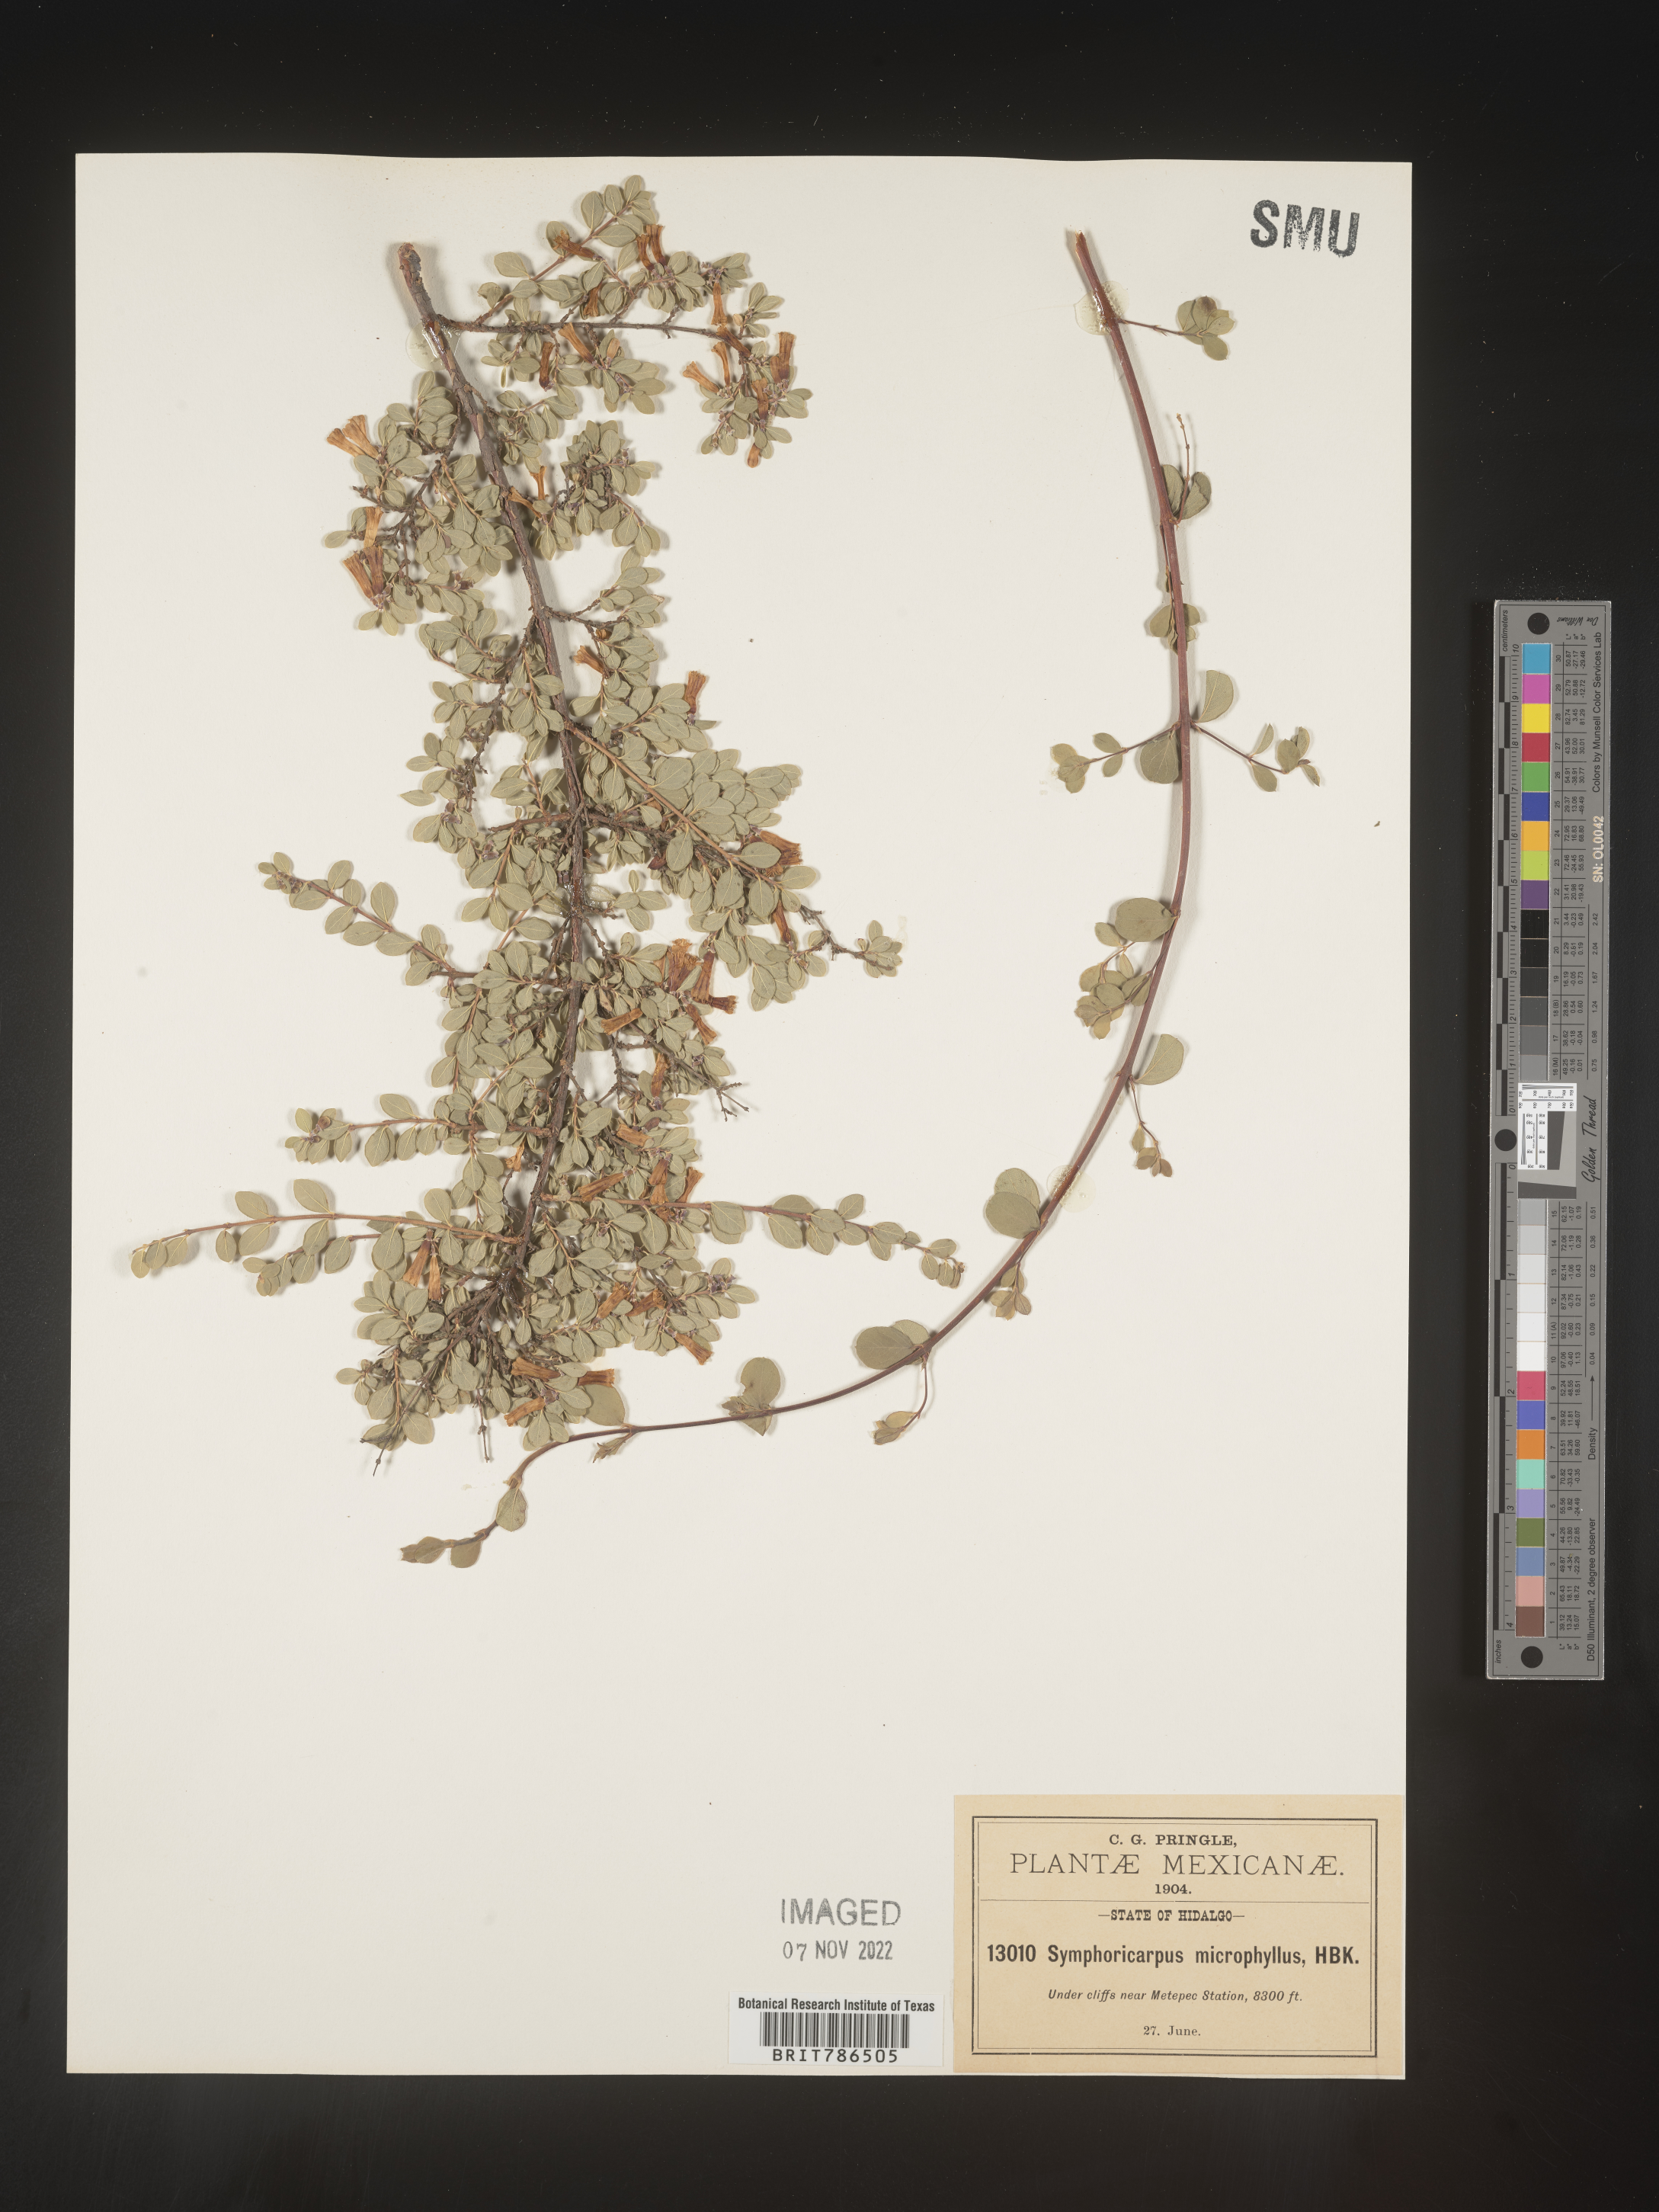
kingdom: Plantae
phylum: Tracheophyta
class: Magnoliopsida
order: Dipsacales
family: Caprifoliaceae
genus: Symphoricarpos
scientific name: Symphoricarpos
